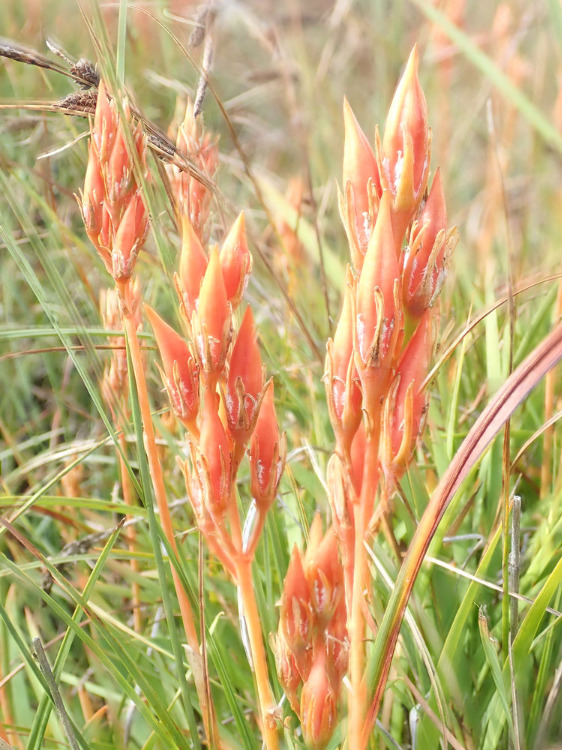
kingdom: Plantae
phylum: Tracheophyta
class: Liliopsida
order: Dioscoreales
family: Nartheciaceae
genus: Narthecium
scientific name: Narthecium ossifragum
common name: Benbræk
